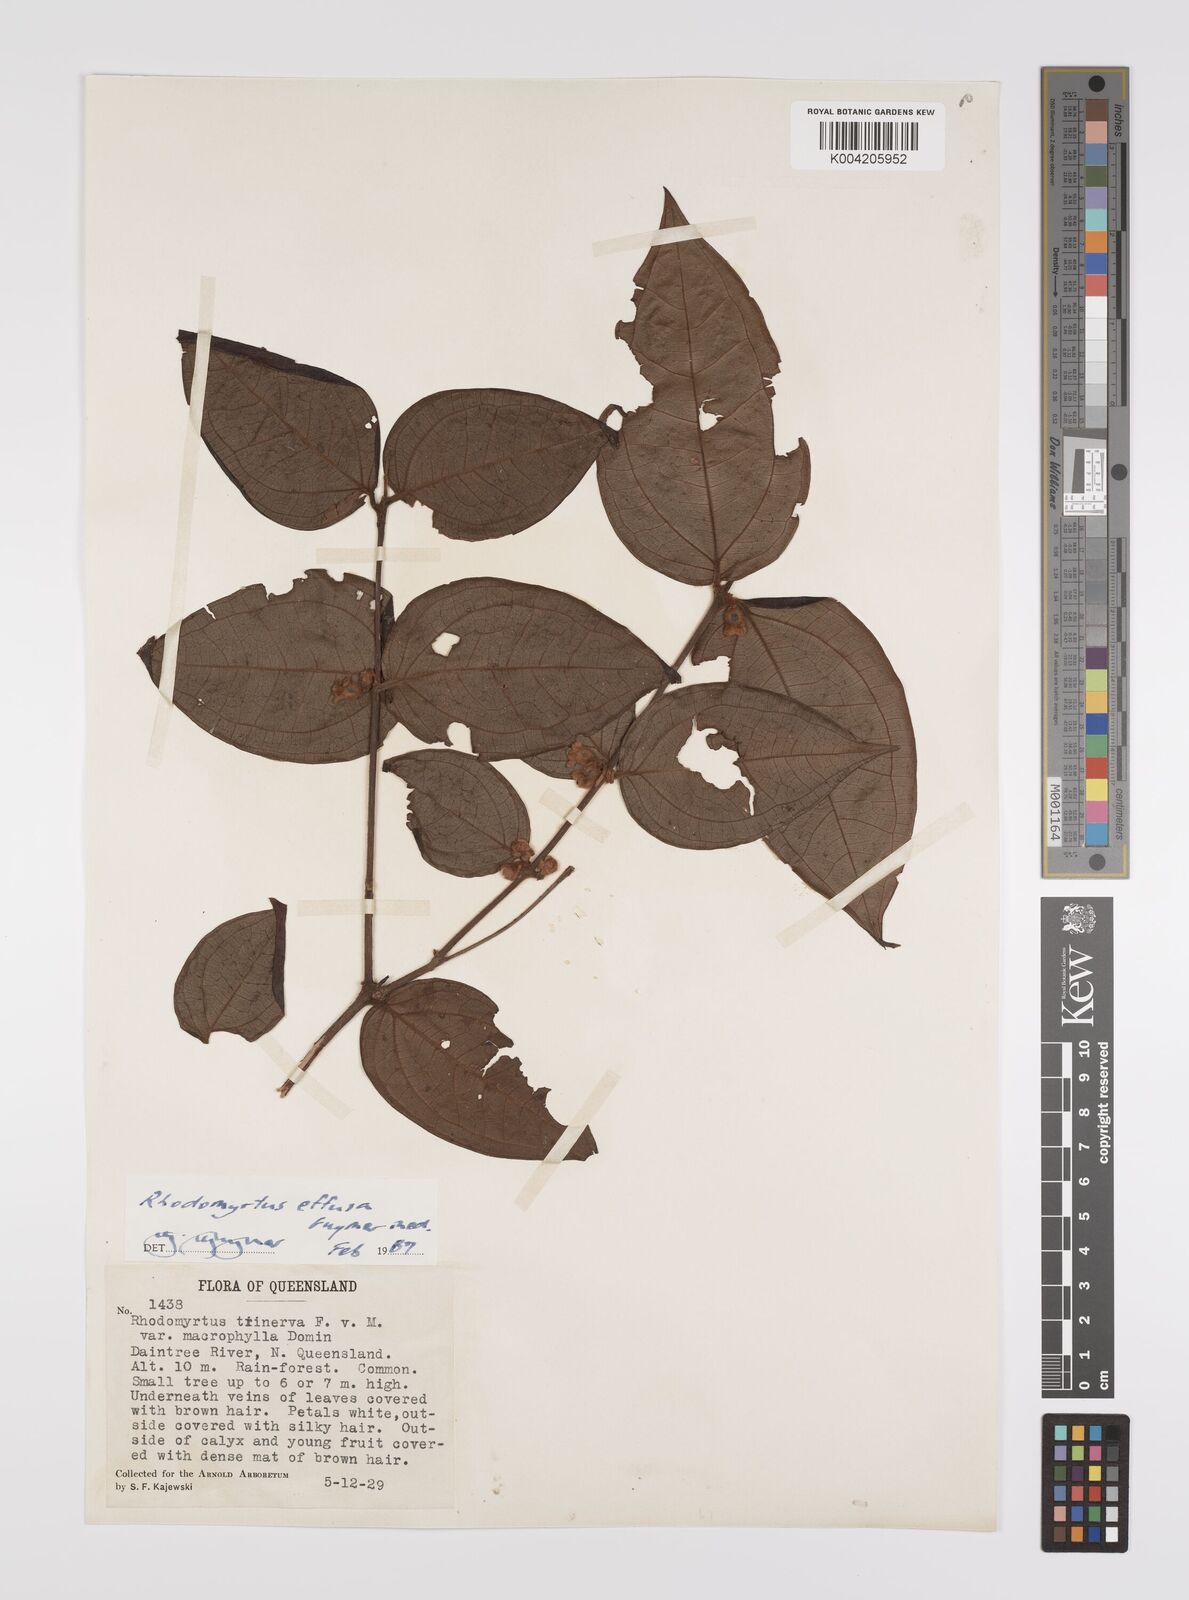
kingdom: Plantae
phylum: Tracheophyta
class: Magnoliopsida
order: Myrtales
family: Myrtaceae
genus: Rhodomyrtus
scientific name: Rhodomyrtus effusa
